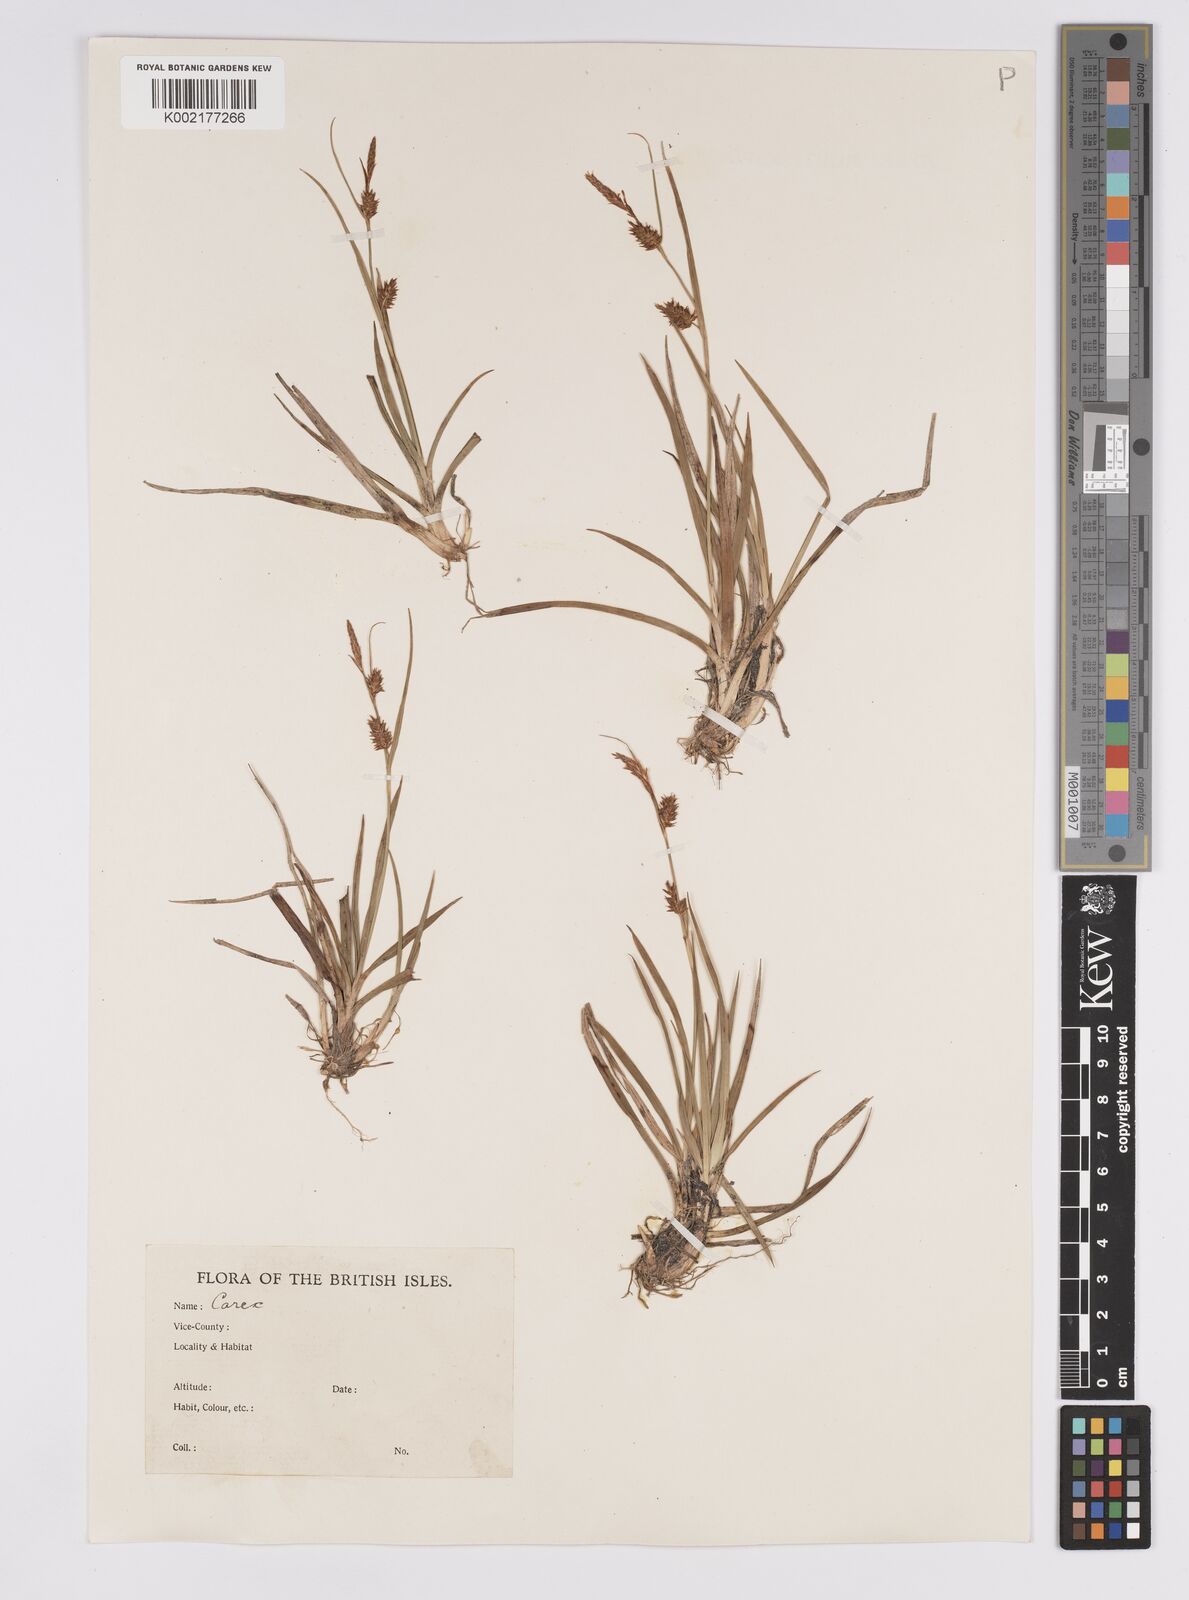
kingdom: Plantae
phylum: Tracheophyta
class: Liliopsida
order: Poales
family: Cyperaceae
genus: Carex
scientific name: Carex hostiana
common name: Tawny sedge
